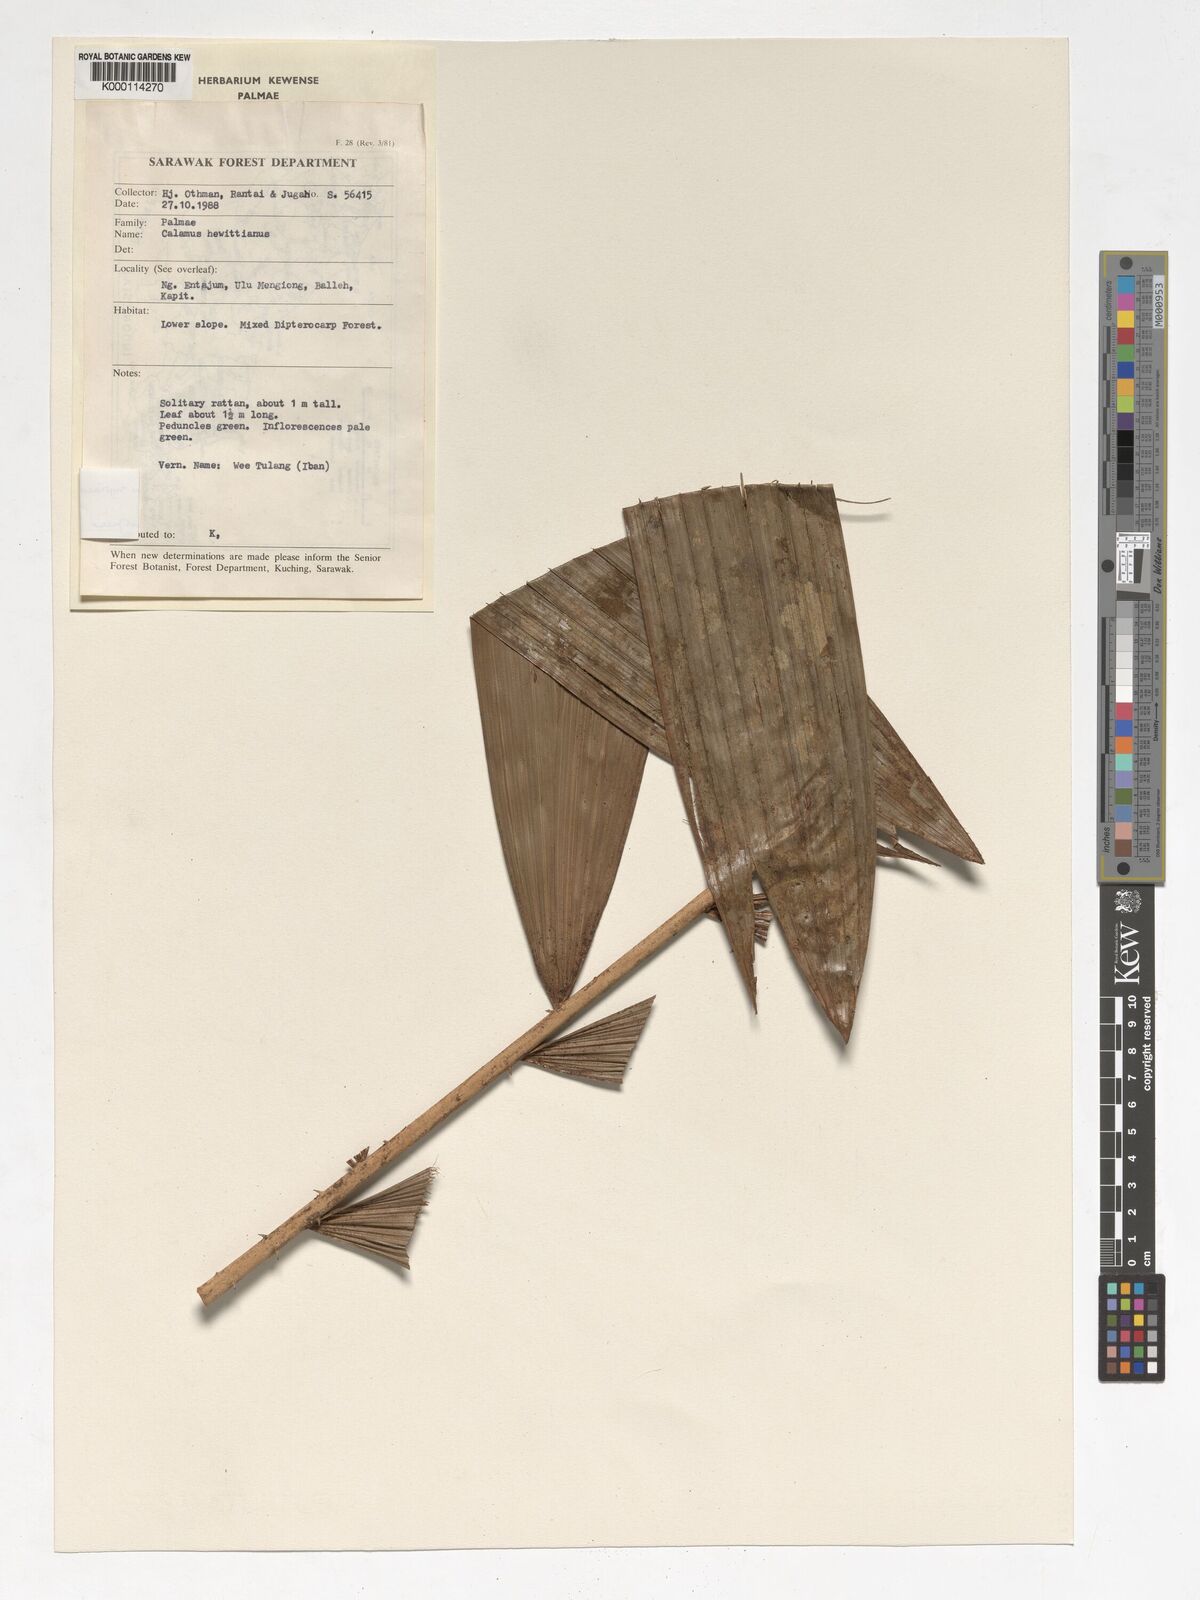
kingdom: Plantae
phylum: Tracheophyta
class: Liliopsida
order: Arecales
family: Arecaceae
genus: Calamus
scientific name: Calamus myriacanthus
